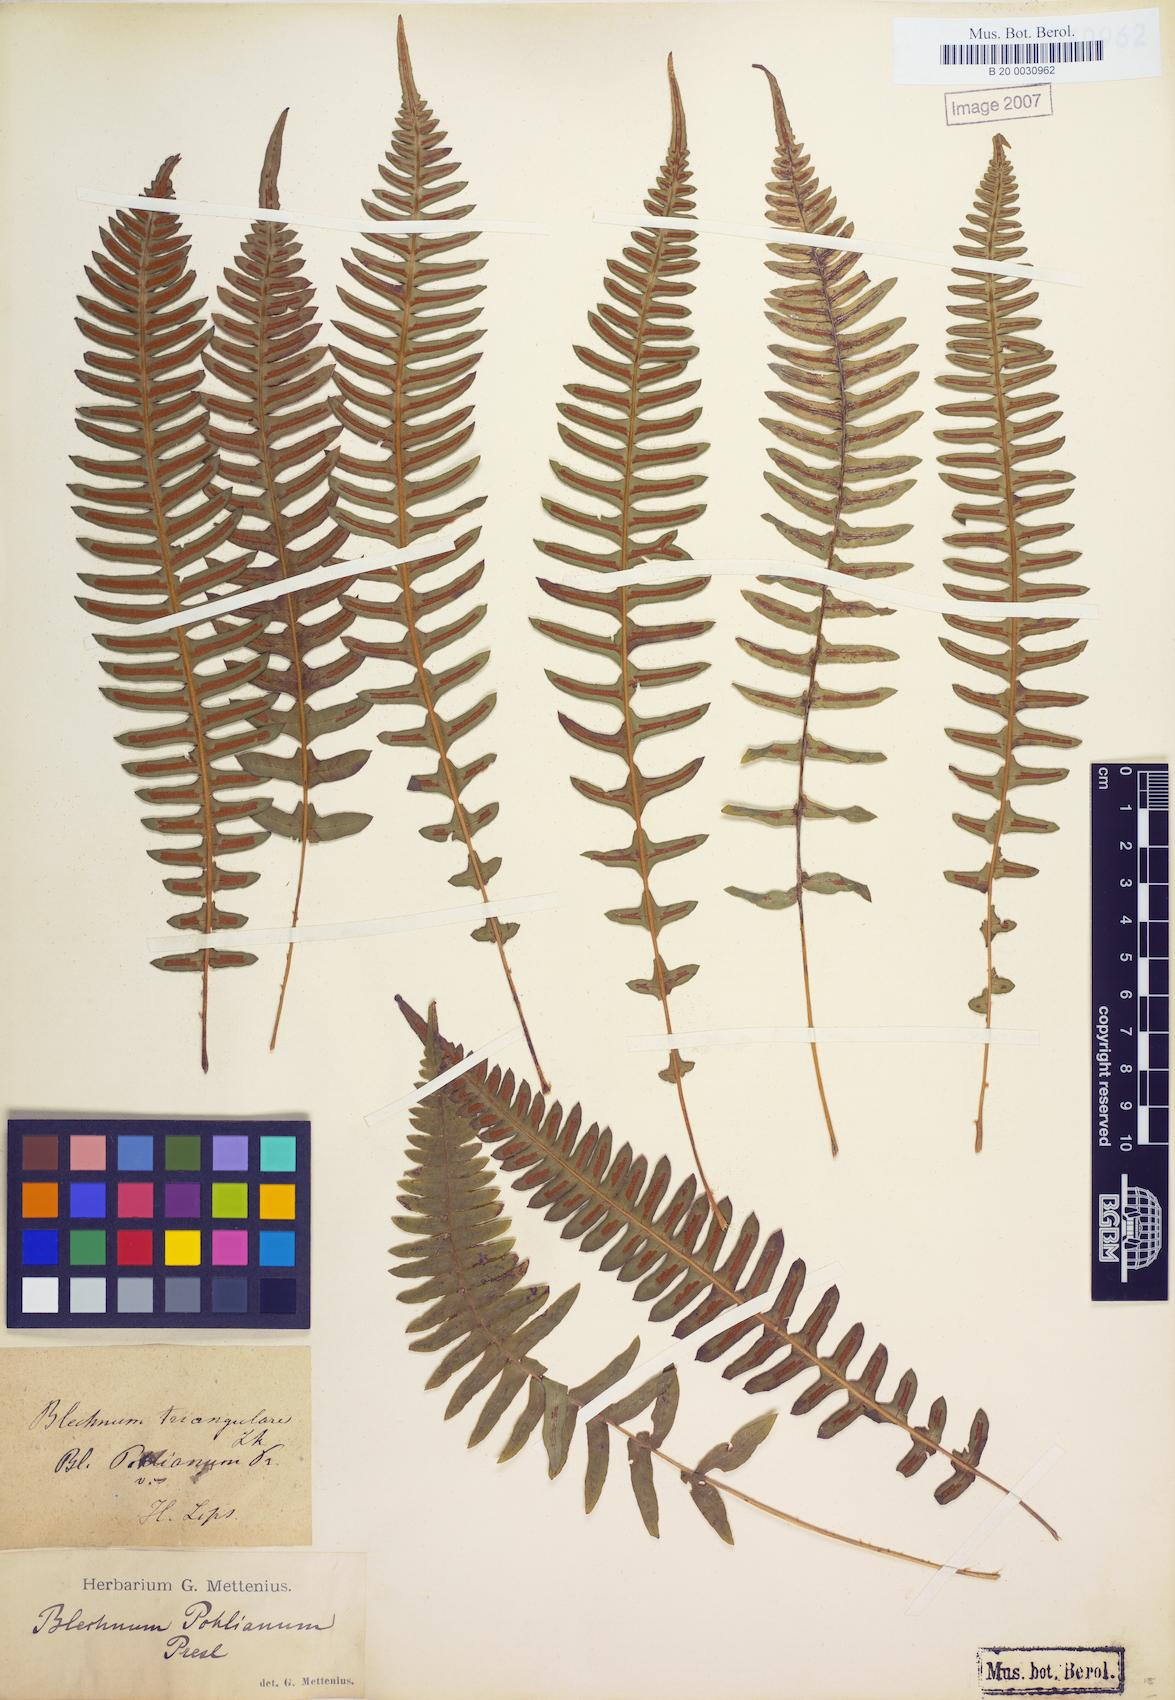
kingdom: Plantae
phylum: Tracheophyta
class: Polypodiopsida
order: Polypodiales
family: Blechnaceae
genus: Blechnum
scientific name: Blechnum laevigatum
